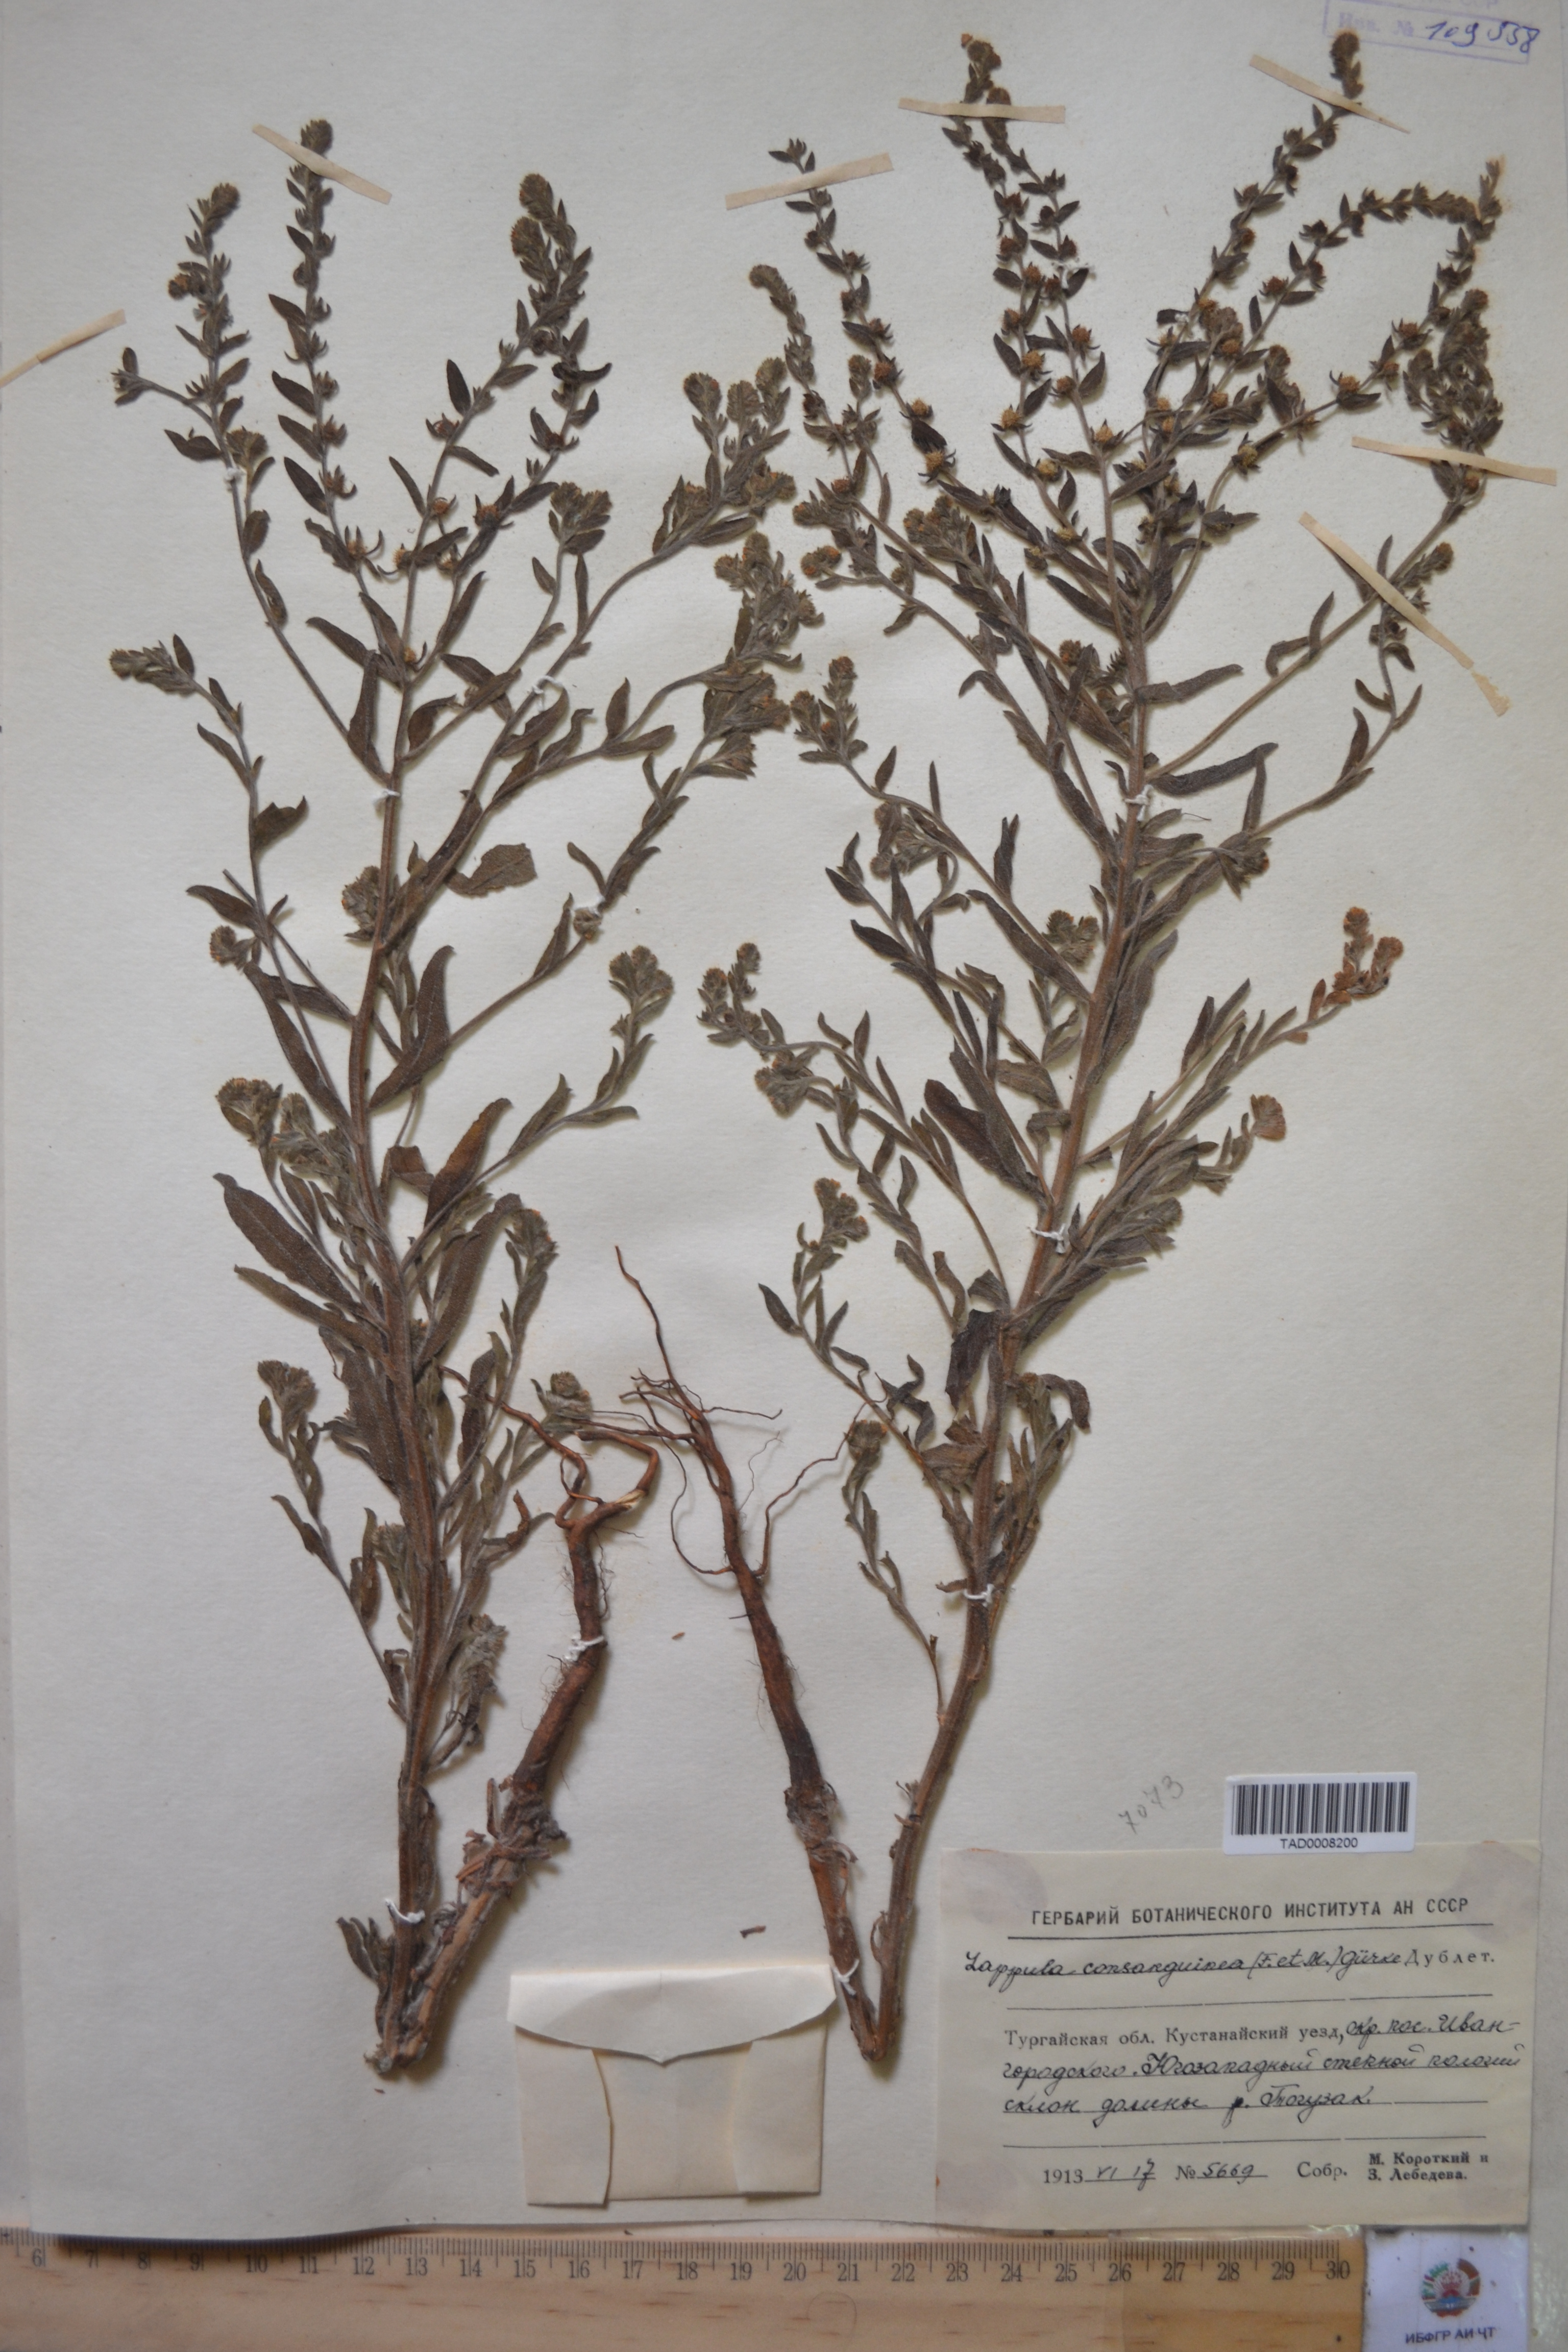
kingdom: Plantae
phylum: Tracheophyta
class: Magnoliopsida
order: Boraginales
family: Boraginaceae
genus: Lappula
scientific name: Lappula squarrosa
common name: European stickseed
